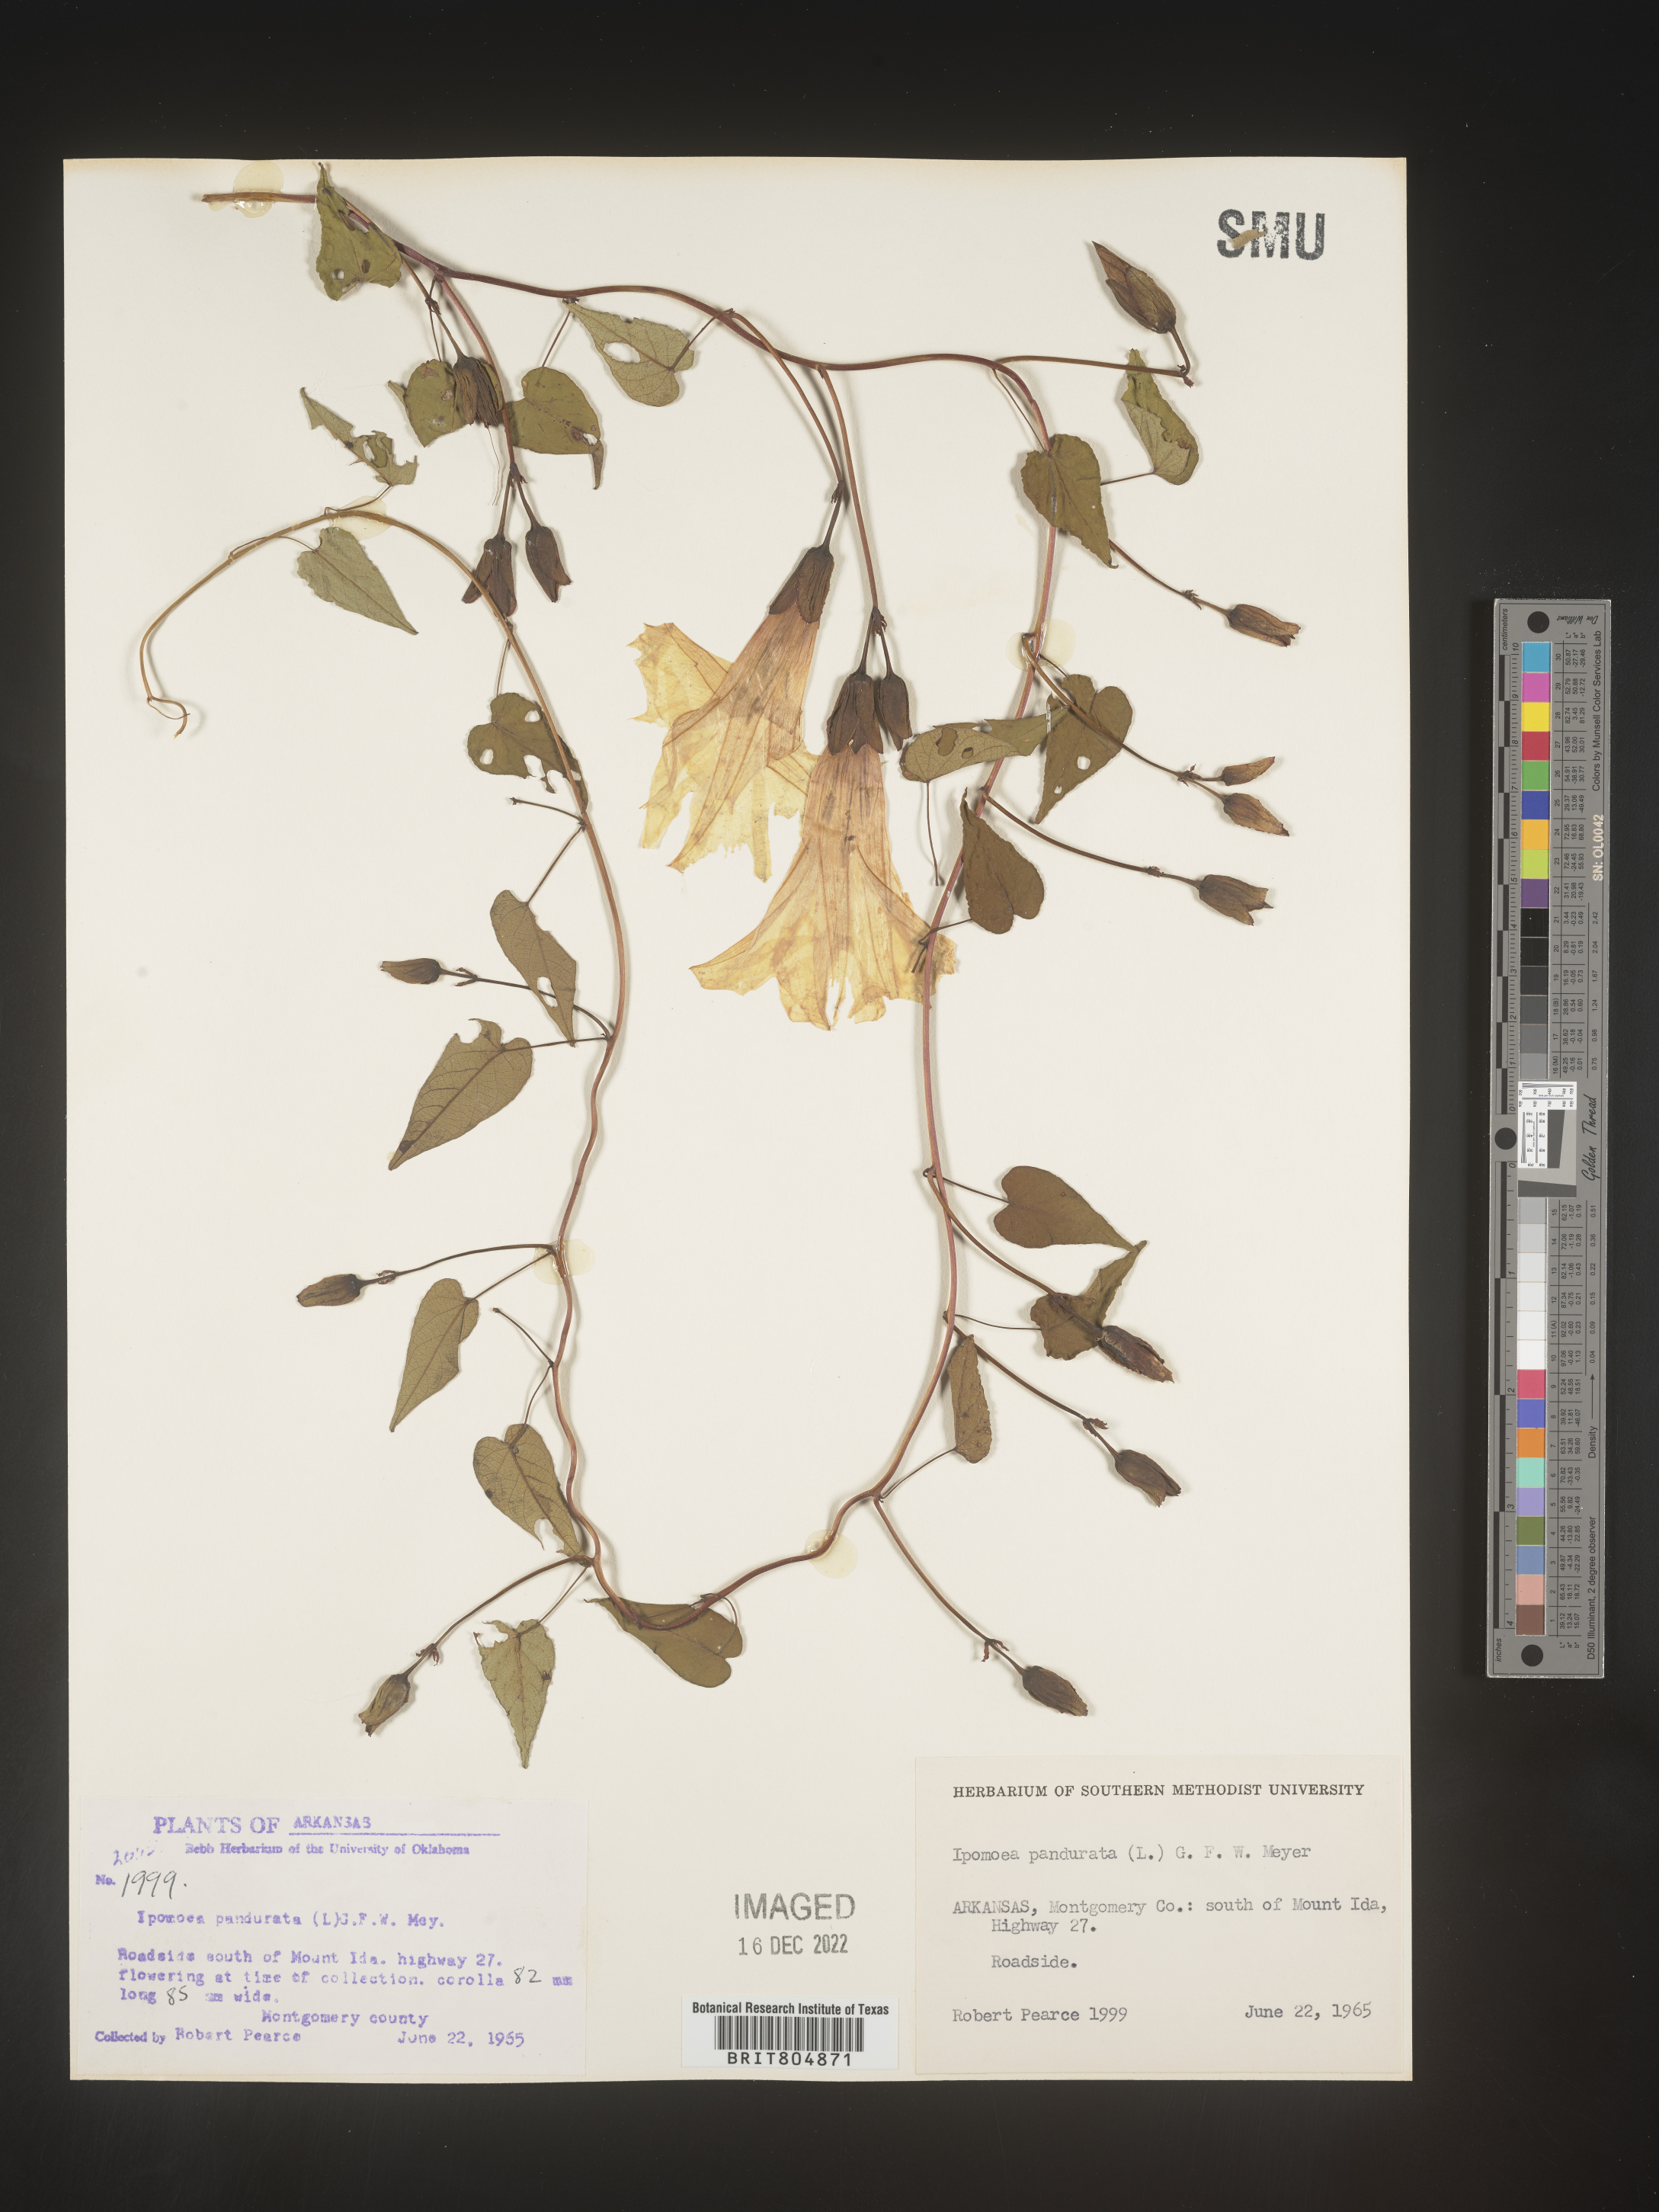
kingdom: Plantae
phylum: Tracheophyta
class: Magnoliopsida
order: Solanales
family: Convolvulaceae
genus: Ipomoea
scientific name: Ipomoea pandurata
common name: Man-of-the-earth
